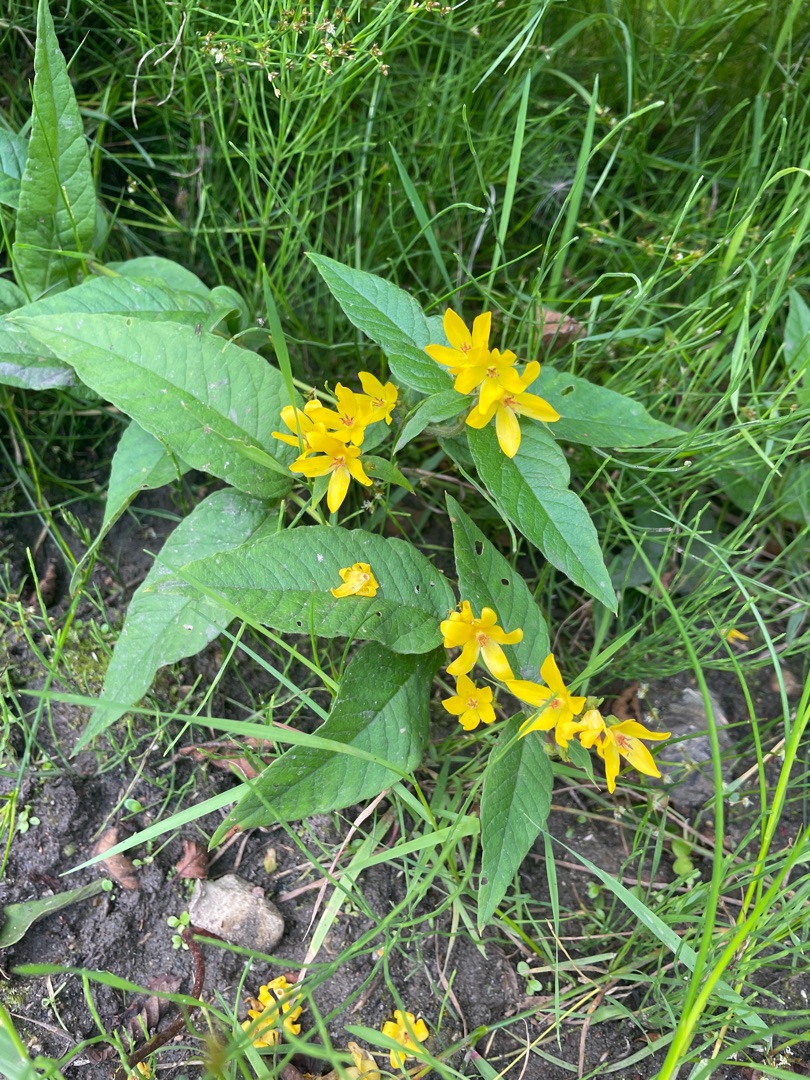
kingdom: Plantae
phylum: Tracheophyta
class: Magnoliopsida
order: Ericales
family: Primulaceae
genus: Lysimachia
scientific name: Lysimachia vulgaris
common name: Almindelig fredløs
